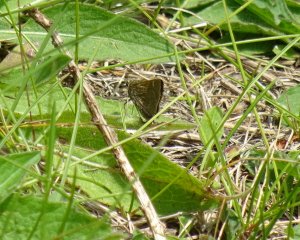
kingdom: Animalia
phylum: Arthropoda
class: Insecta
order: Lepidoptera
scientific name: Lepidoptera
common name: Butterflies
